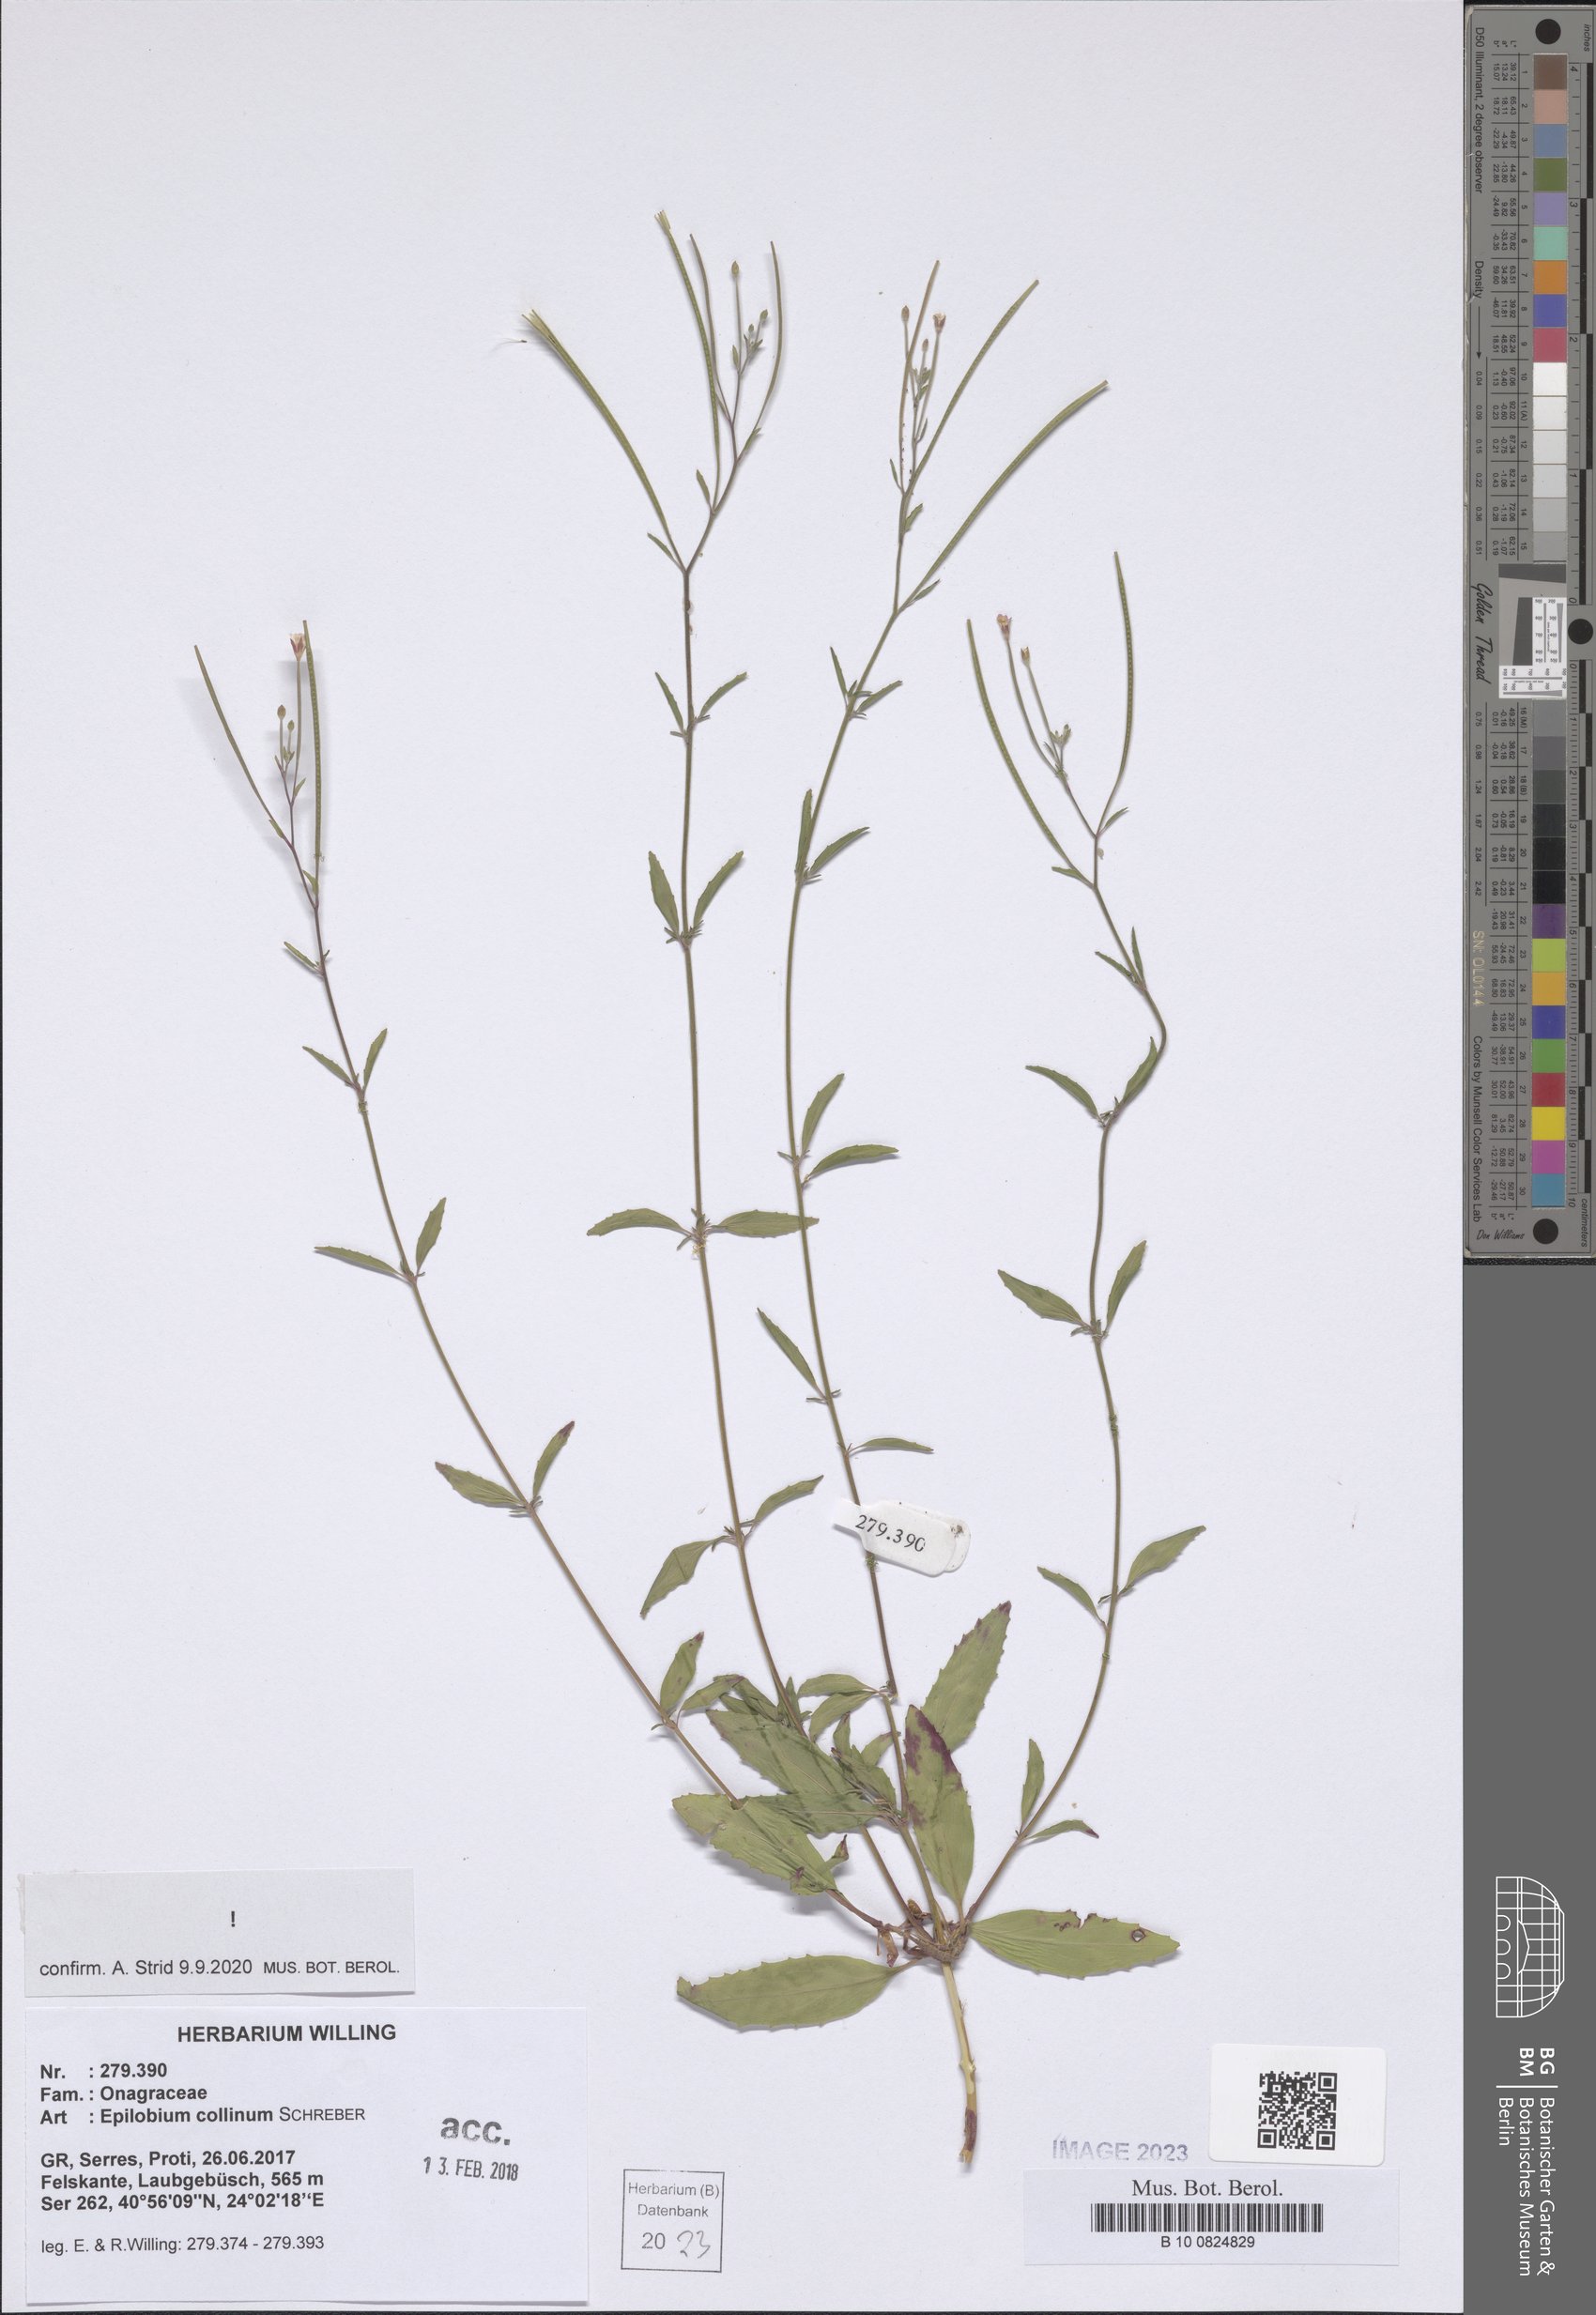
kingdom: Plantae
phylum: Tracheophyta
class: Magnoliopsida
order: Myrtales
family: Onagraceae
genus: Epilobium
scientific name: Epilobium collinum
